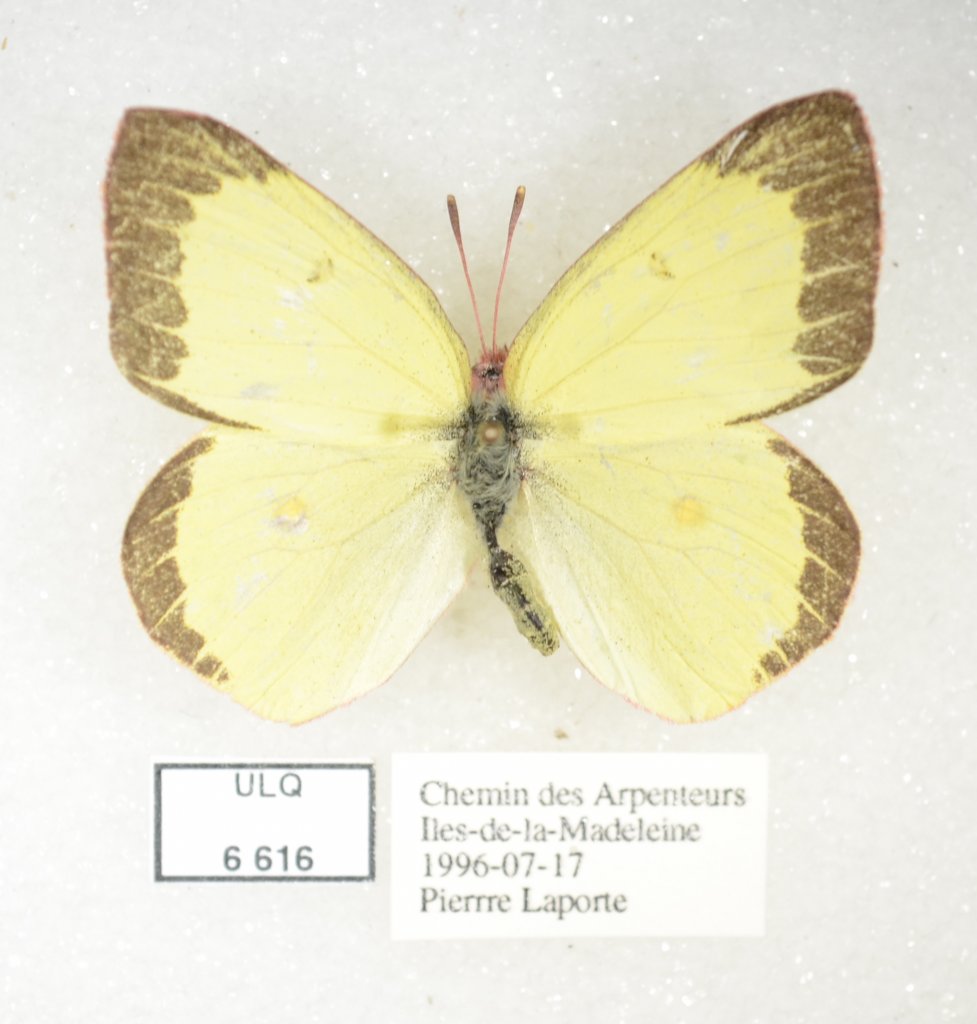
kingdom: Animalia
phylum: Arthropoda
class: Insecta
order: Lepidoptera
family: Pieridae
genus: Colias
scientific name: Colias interior
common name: Pink-edged Sulphur
